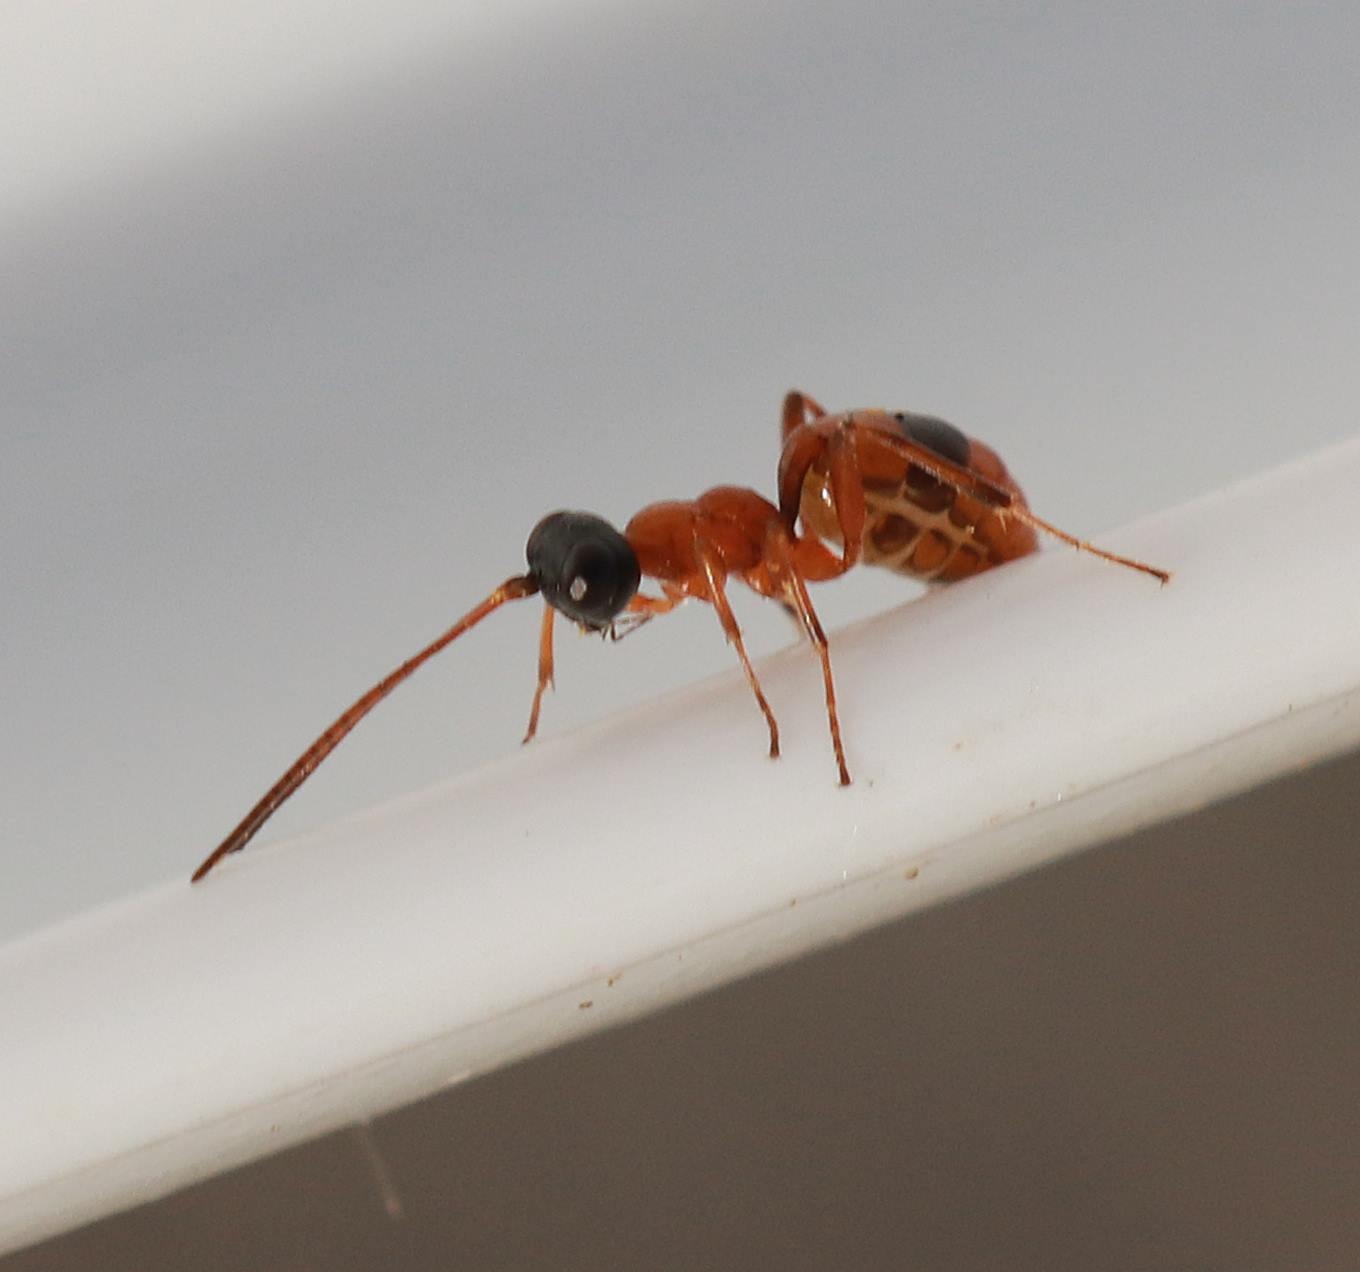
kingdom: Animalia
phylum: Arthropoda
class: Insecta
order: Hymenoptera
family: Ichneumonidae
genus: Gelis
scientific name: Gelis melanocephalus
